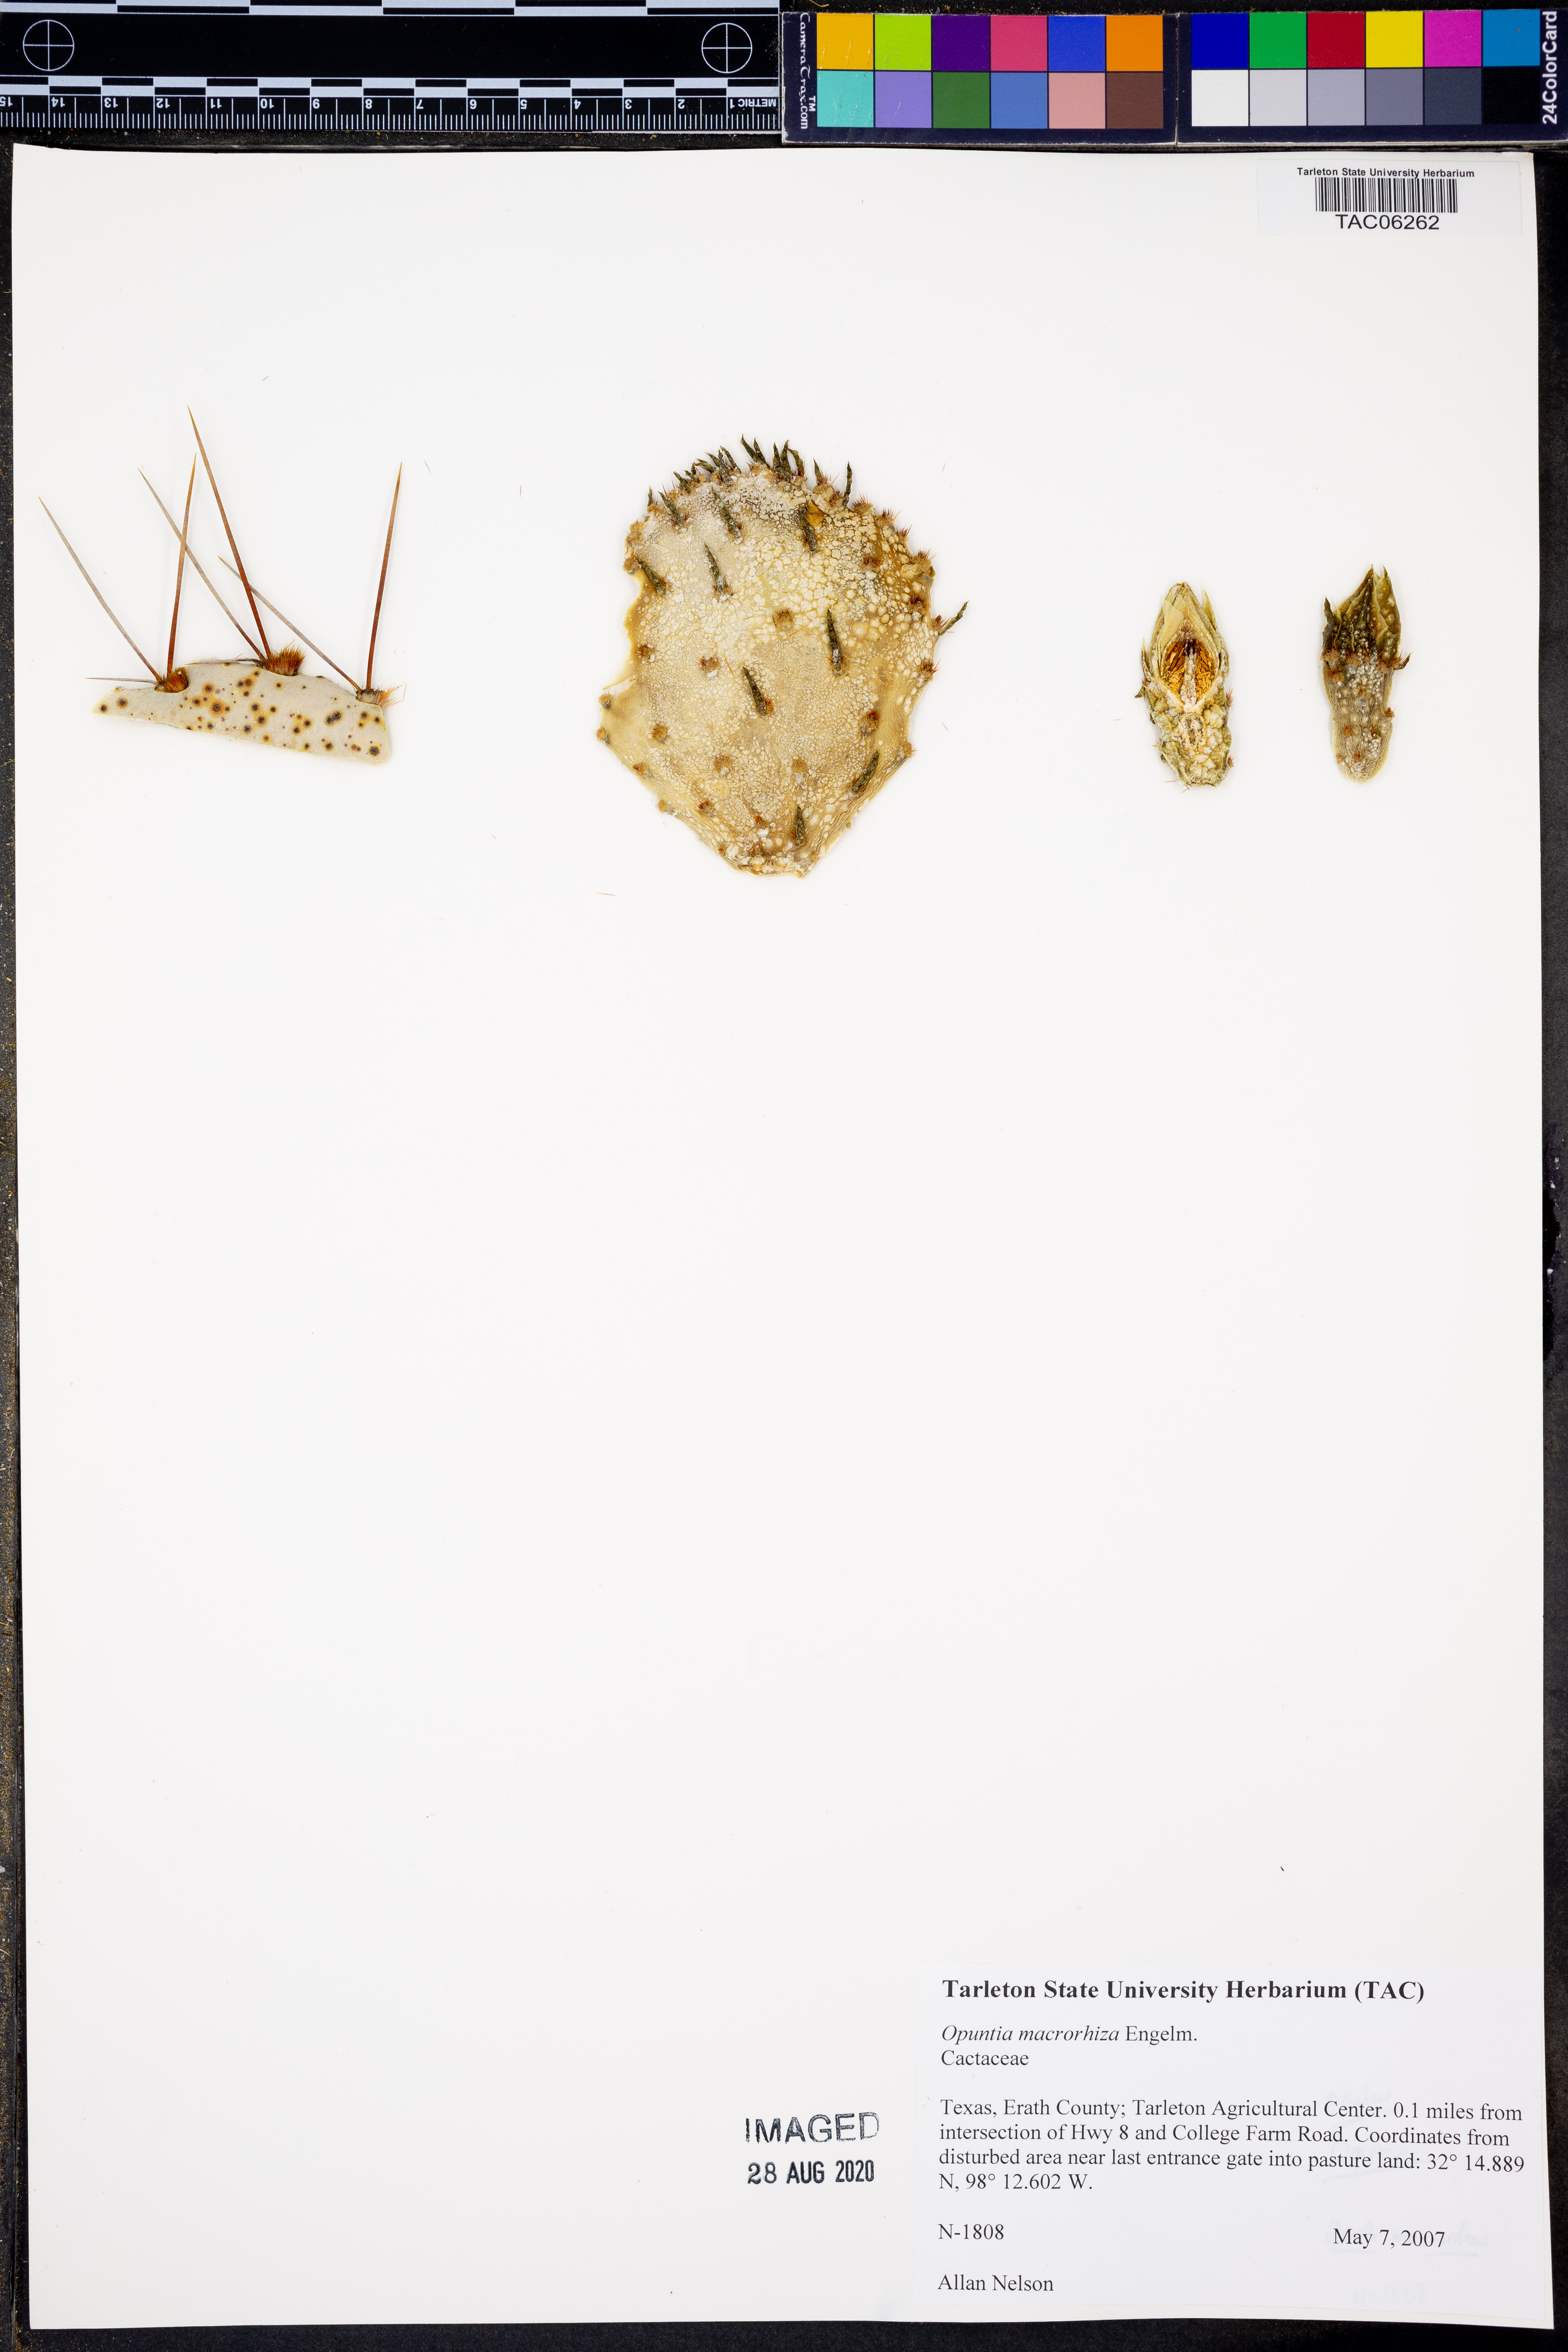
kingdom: Plantae
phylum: Tracheophyta
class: Magnoliopsida
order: Caryophyllales
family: Cactaceae
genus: Opuntia
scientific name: Opuntia macrorhiza
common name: Grassland pricklypear
